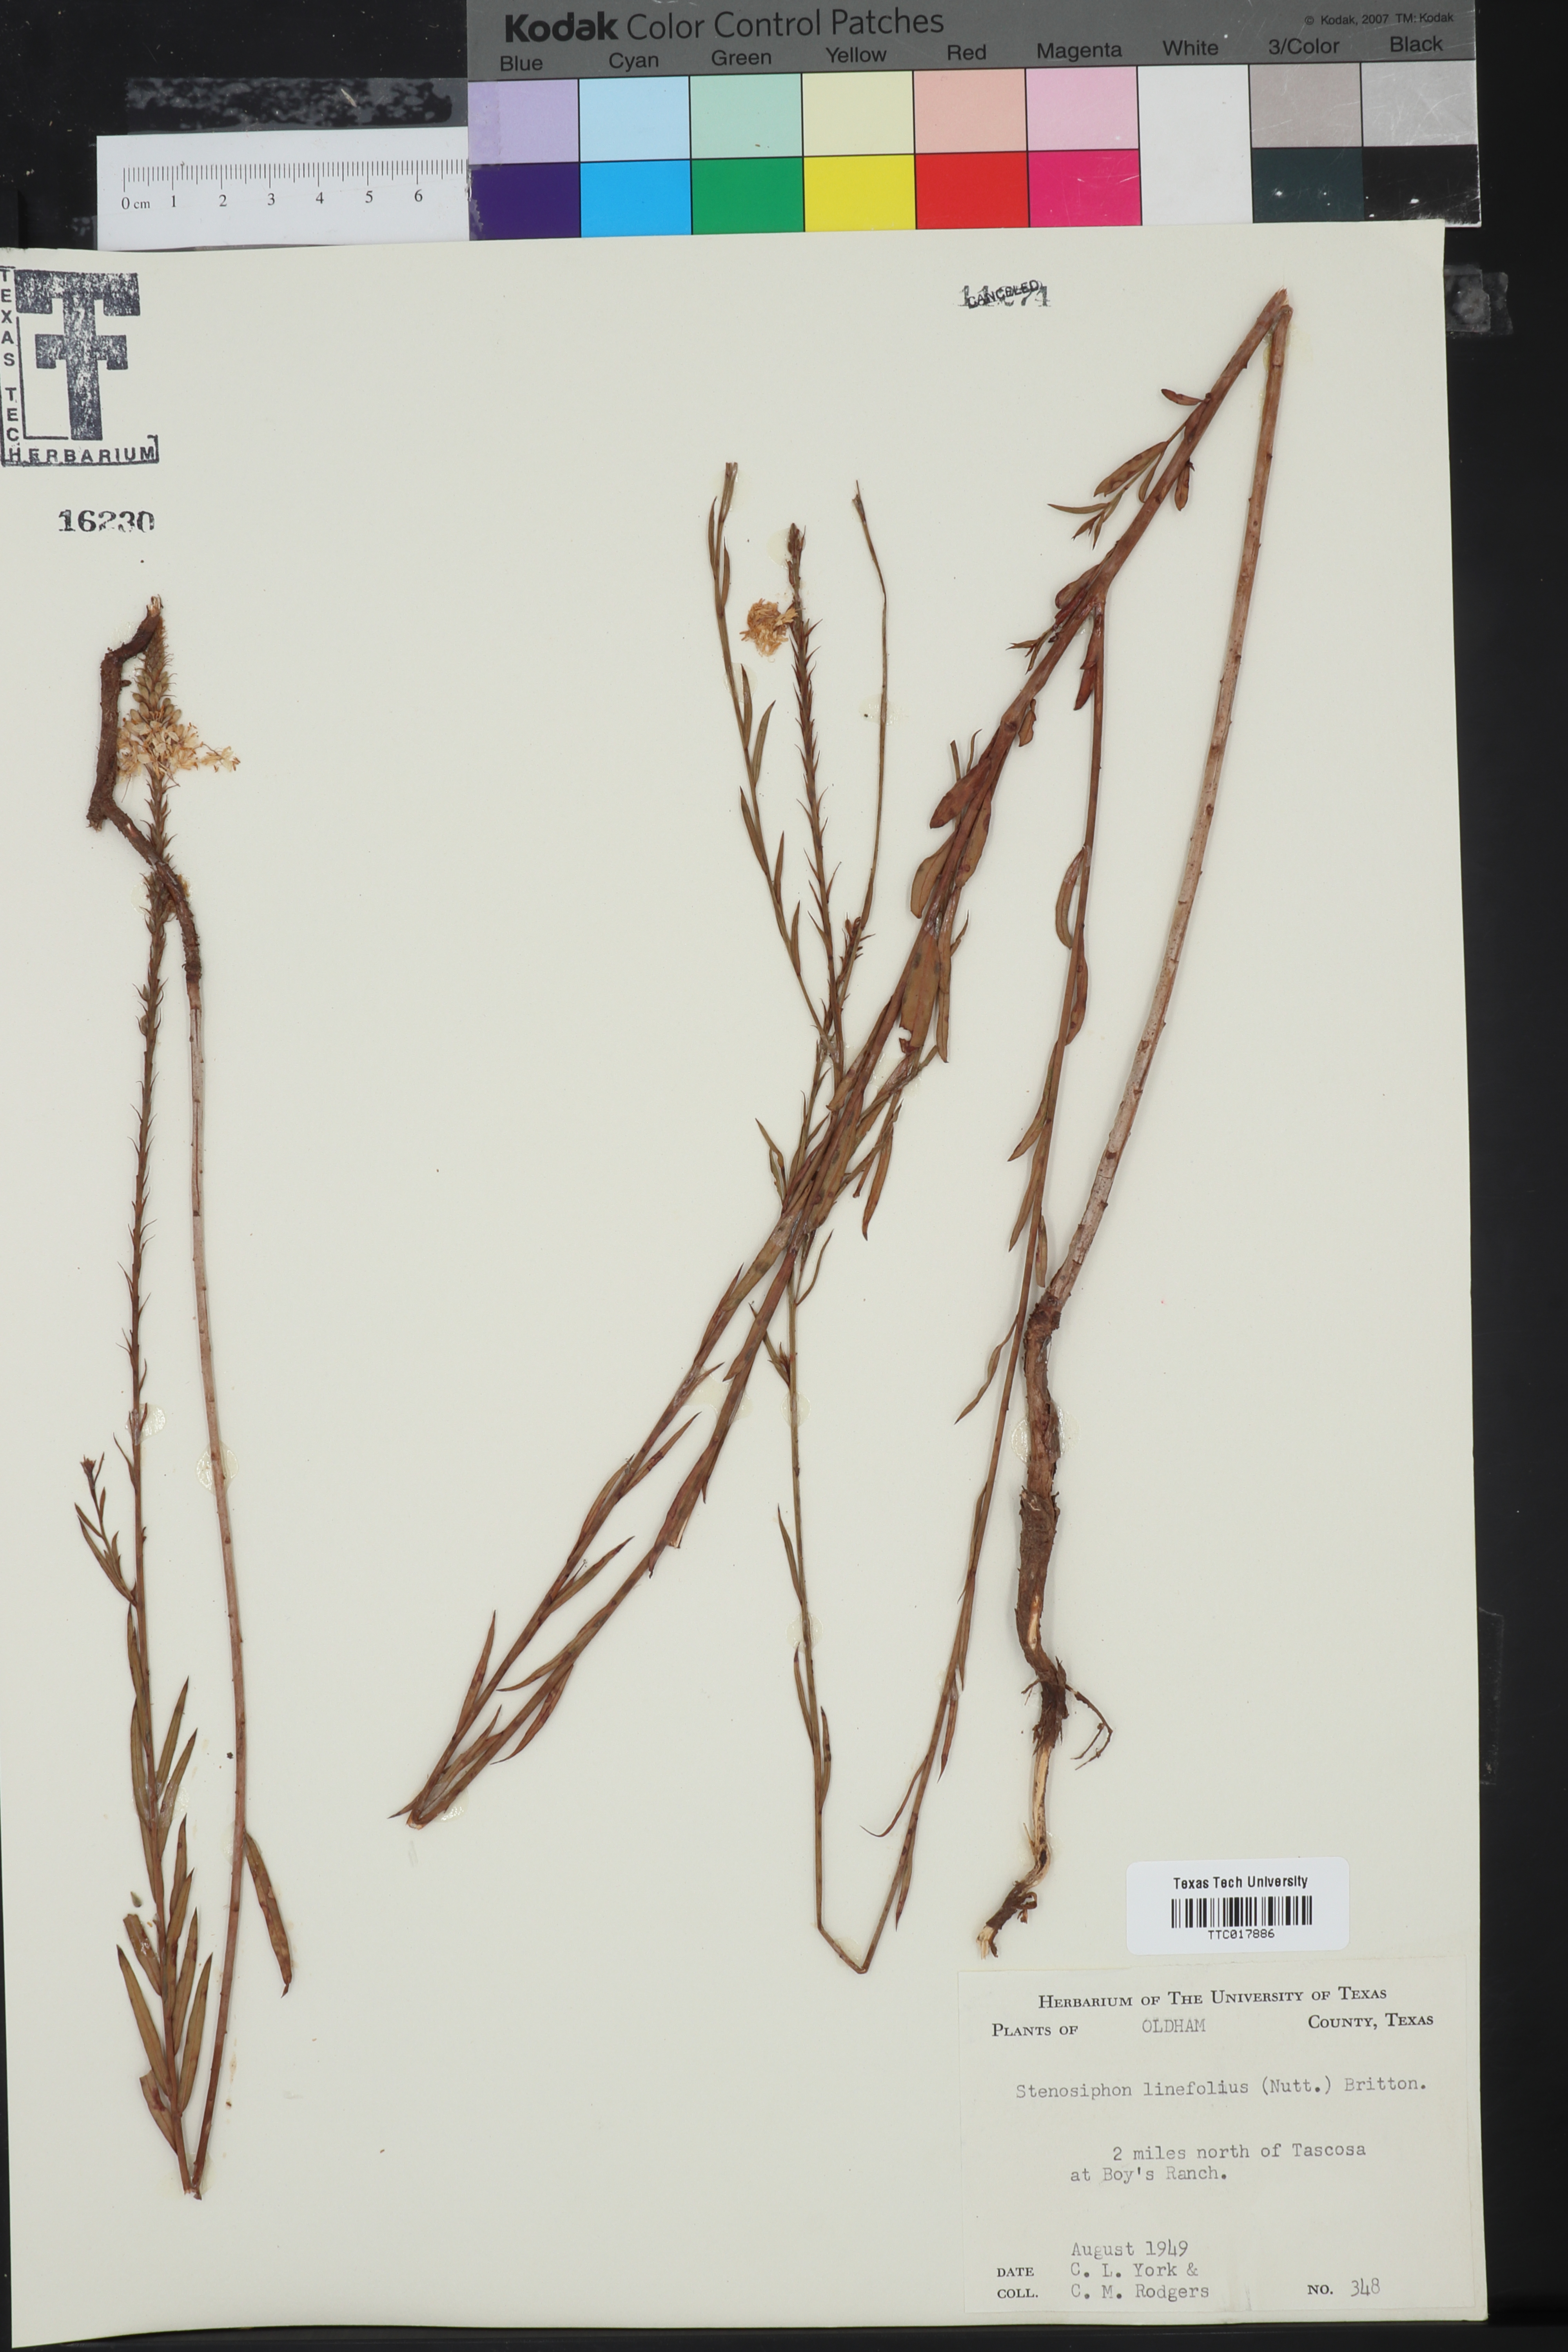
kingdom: Plantae
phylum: Tracheophyta
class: Magnoliopsida
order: Myrtales
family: Onagraceae
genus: Oenothera
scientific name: Oenothera glaucifolia
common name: False gaura
